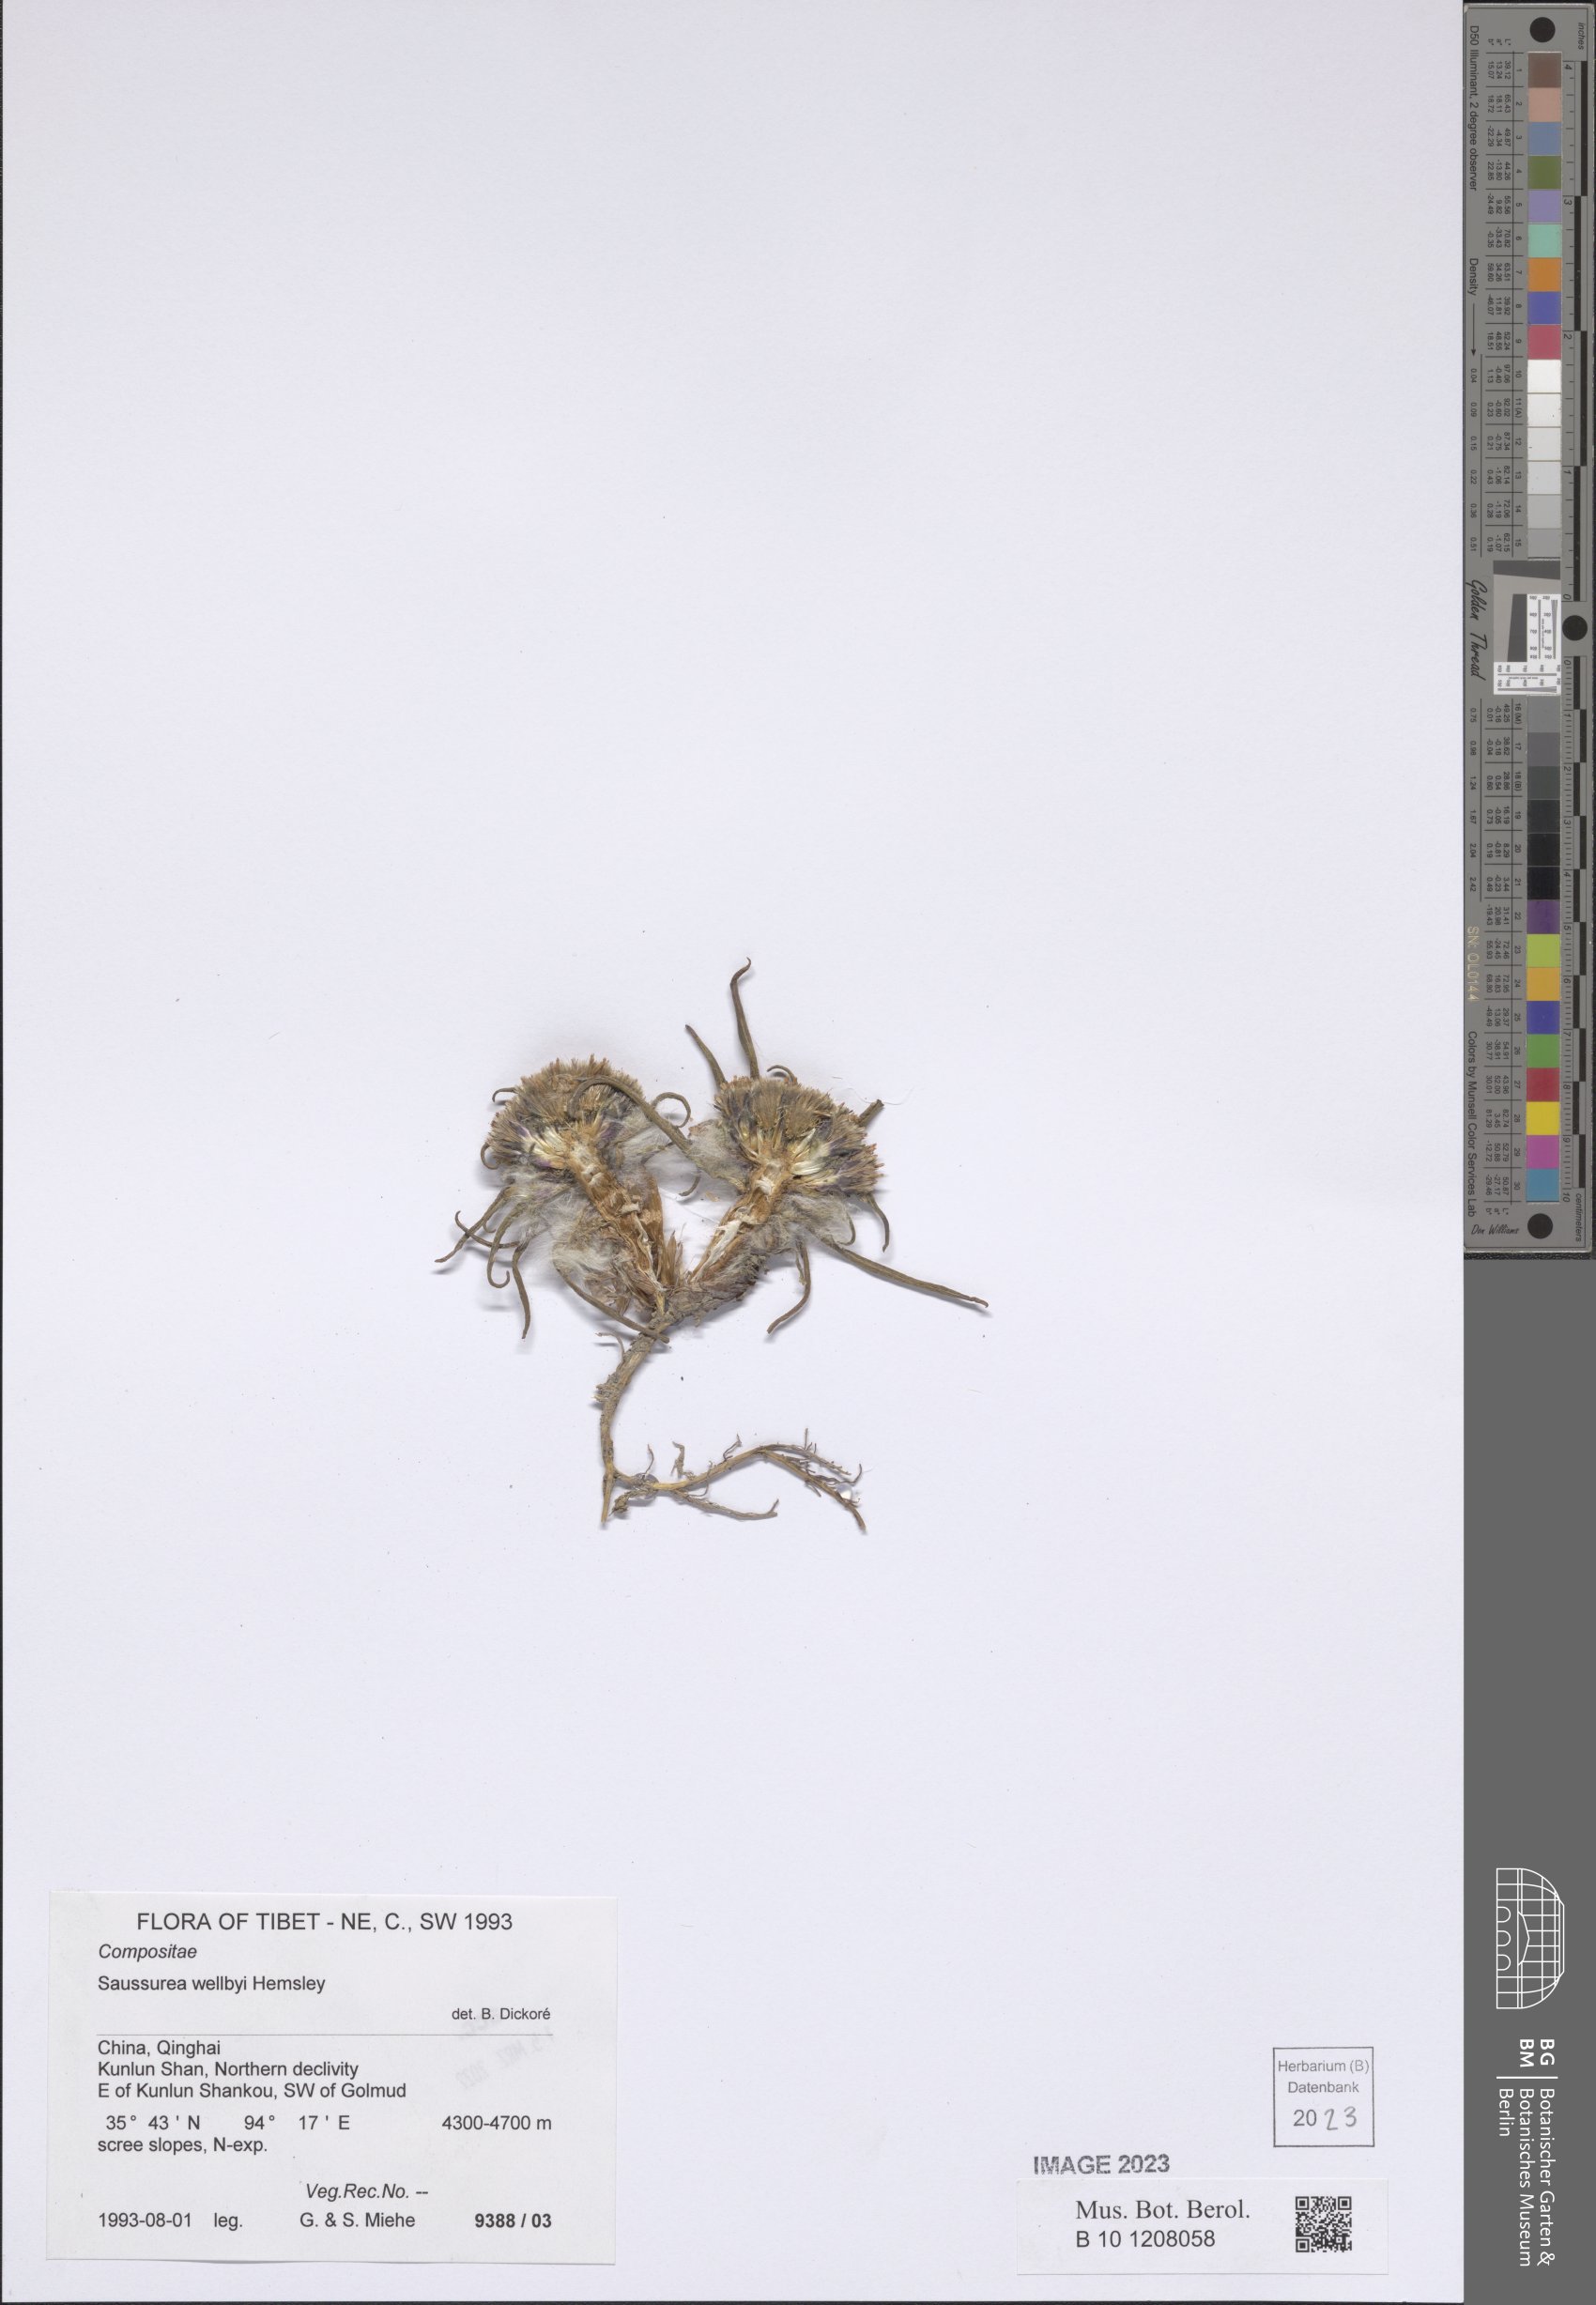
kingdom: Plantae
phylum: Tracheophyta
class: Magnoliopsida
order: Asterales
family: Asteraceae
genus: Saussurea
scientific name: Saussurea wellbyi
